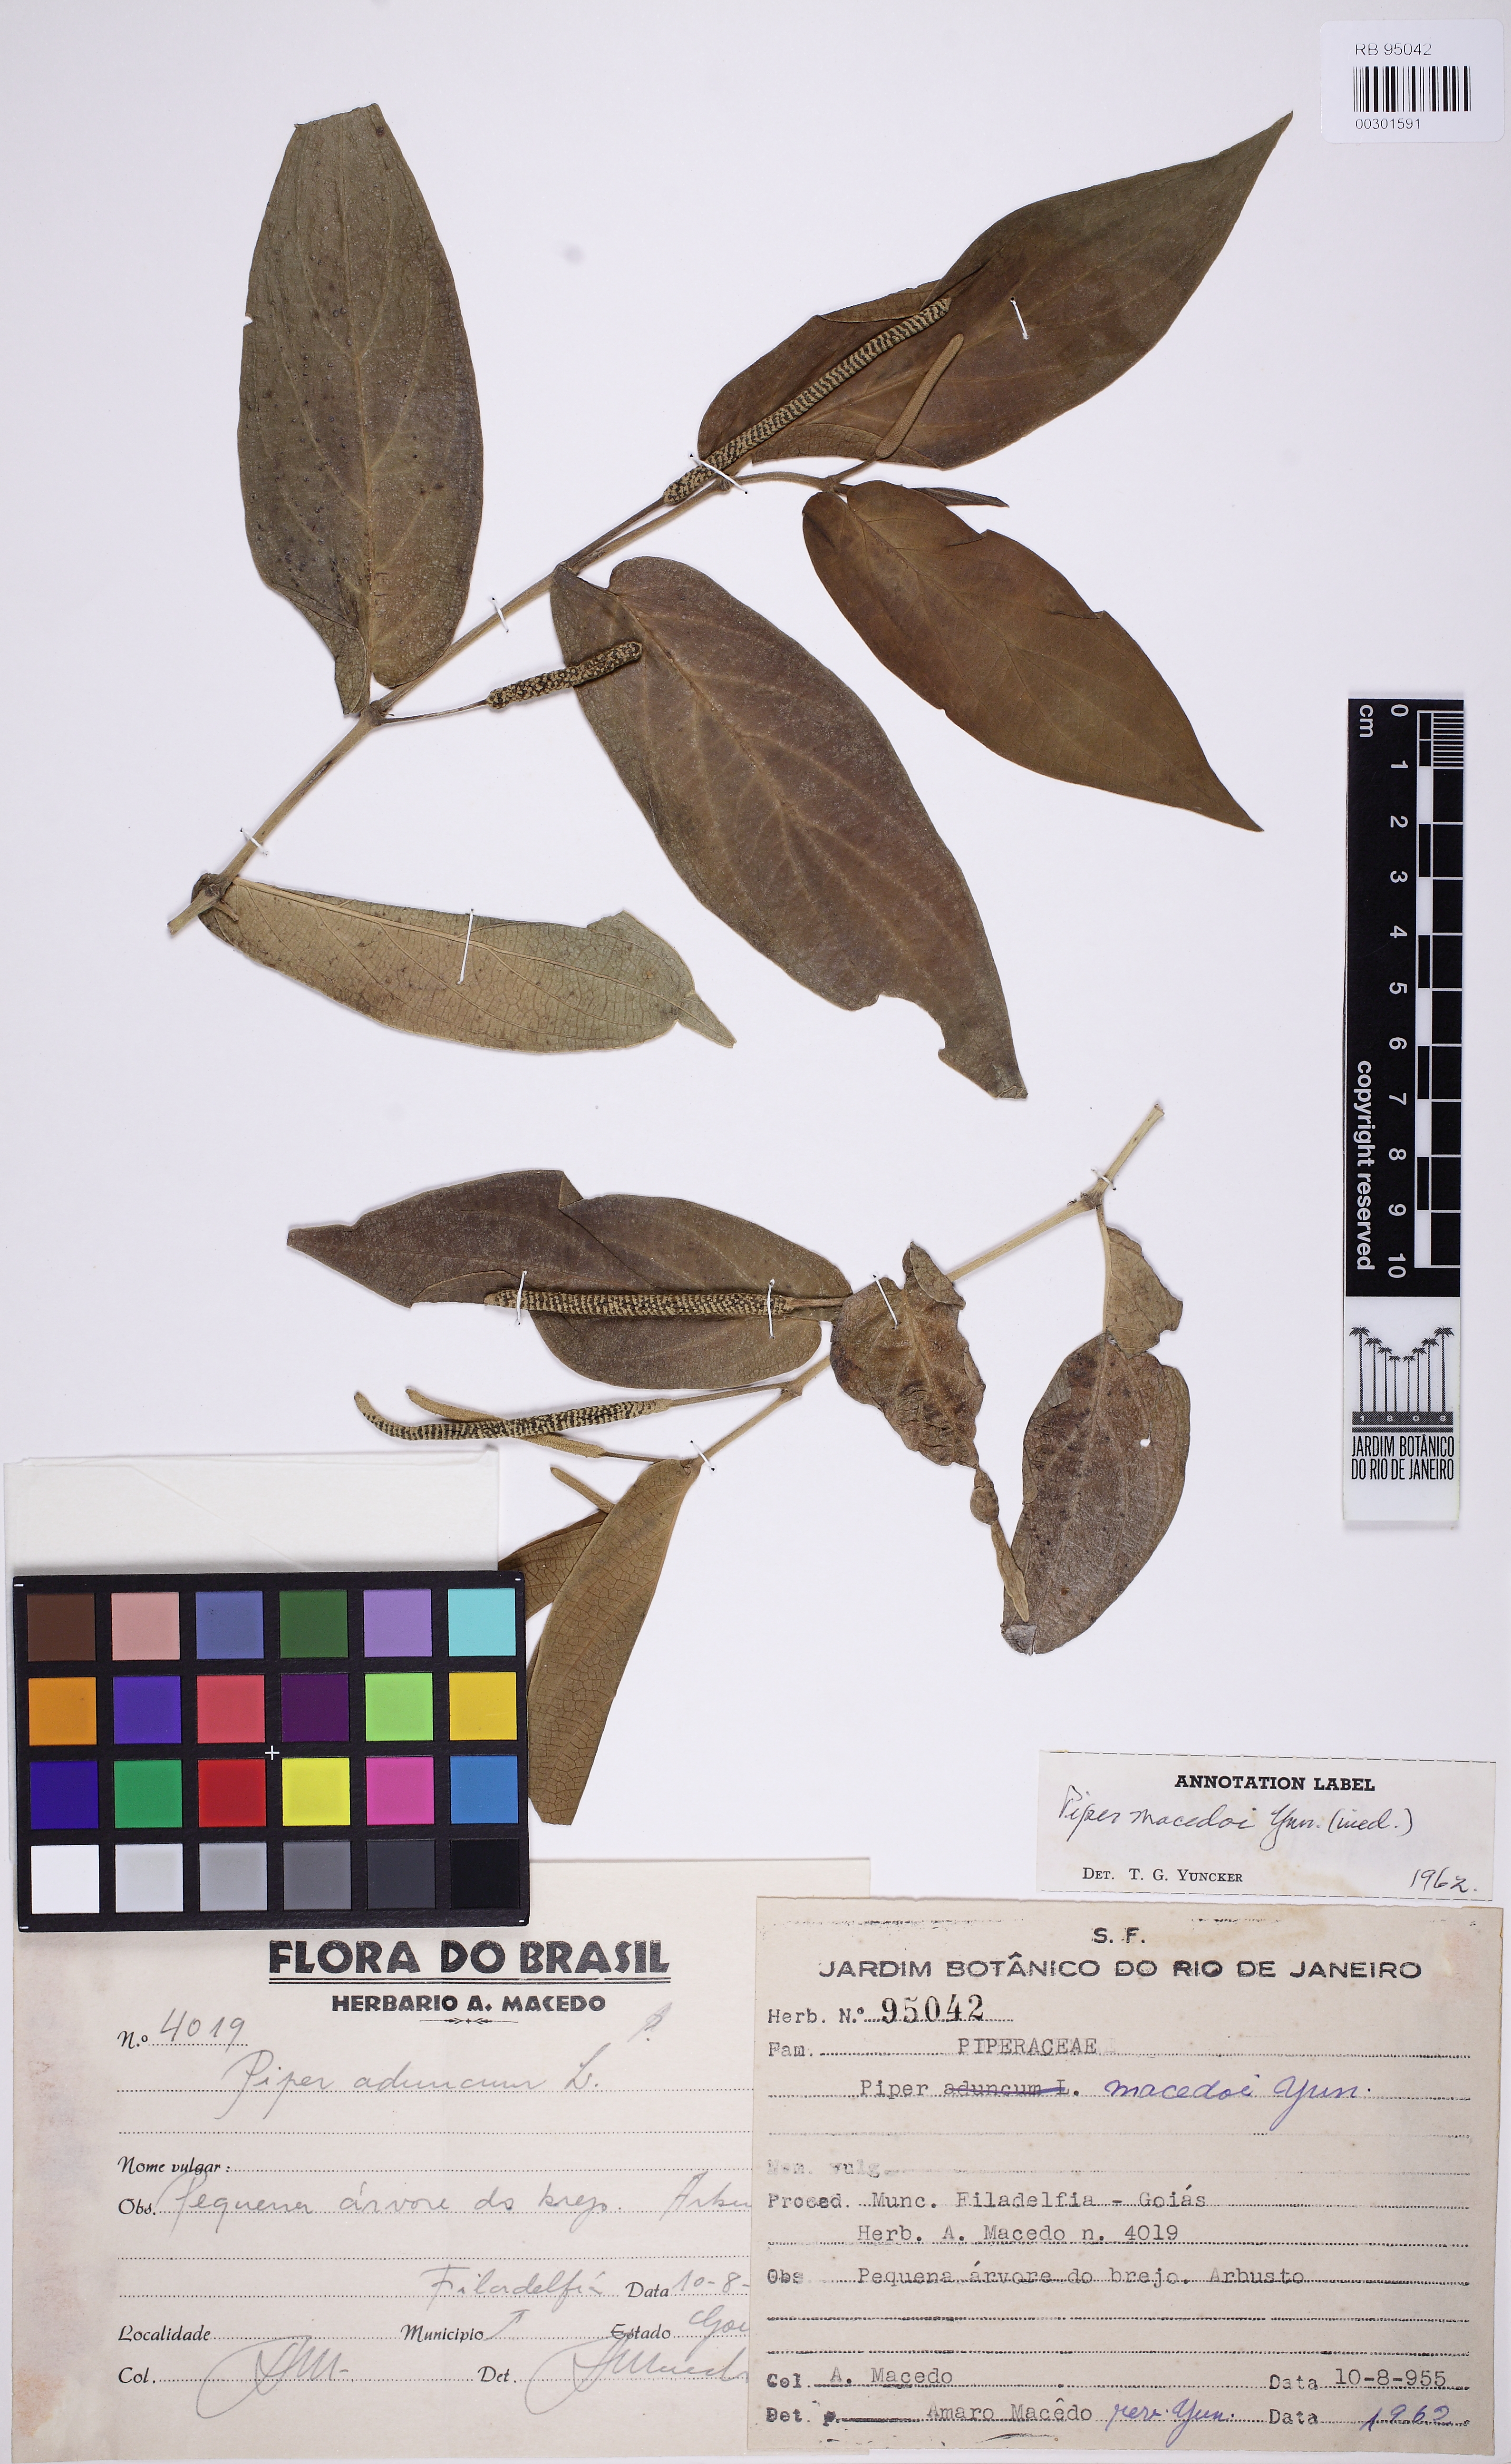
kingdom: Plantae
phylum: Tracheophyta
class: Magnoliopsida
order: Piperales
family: Piperaceae
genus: Piper
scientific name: Piper macedoi
